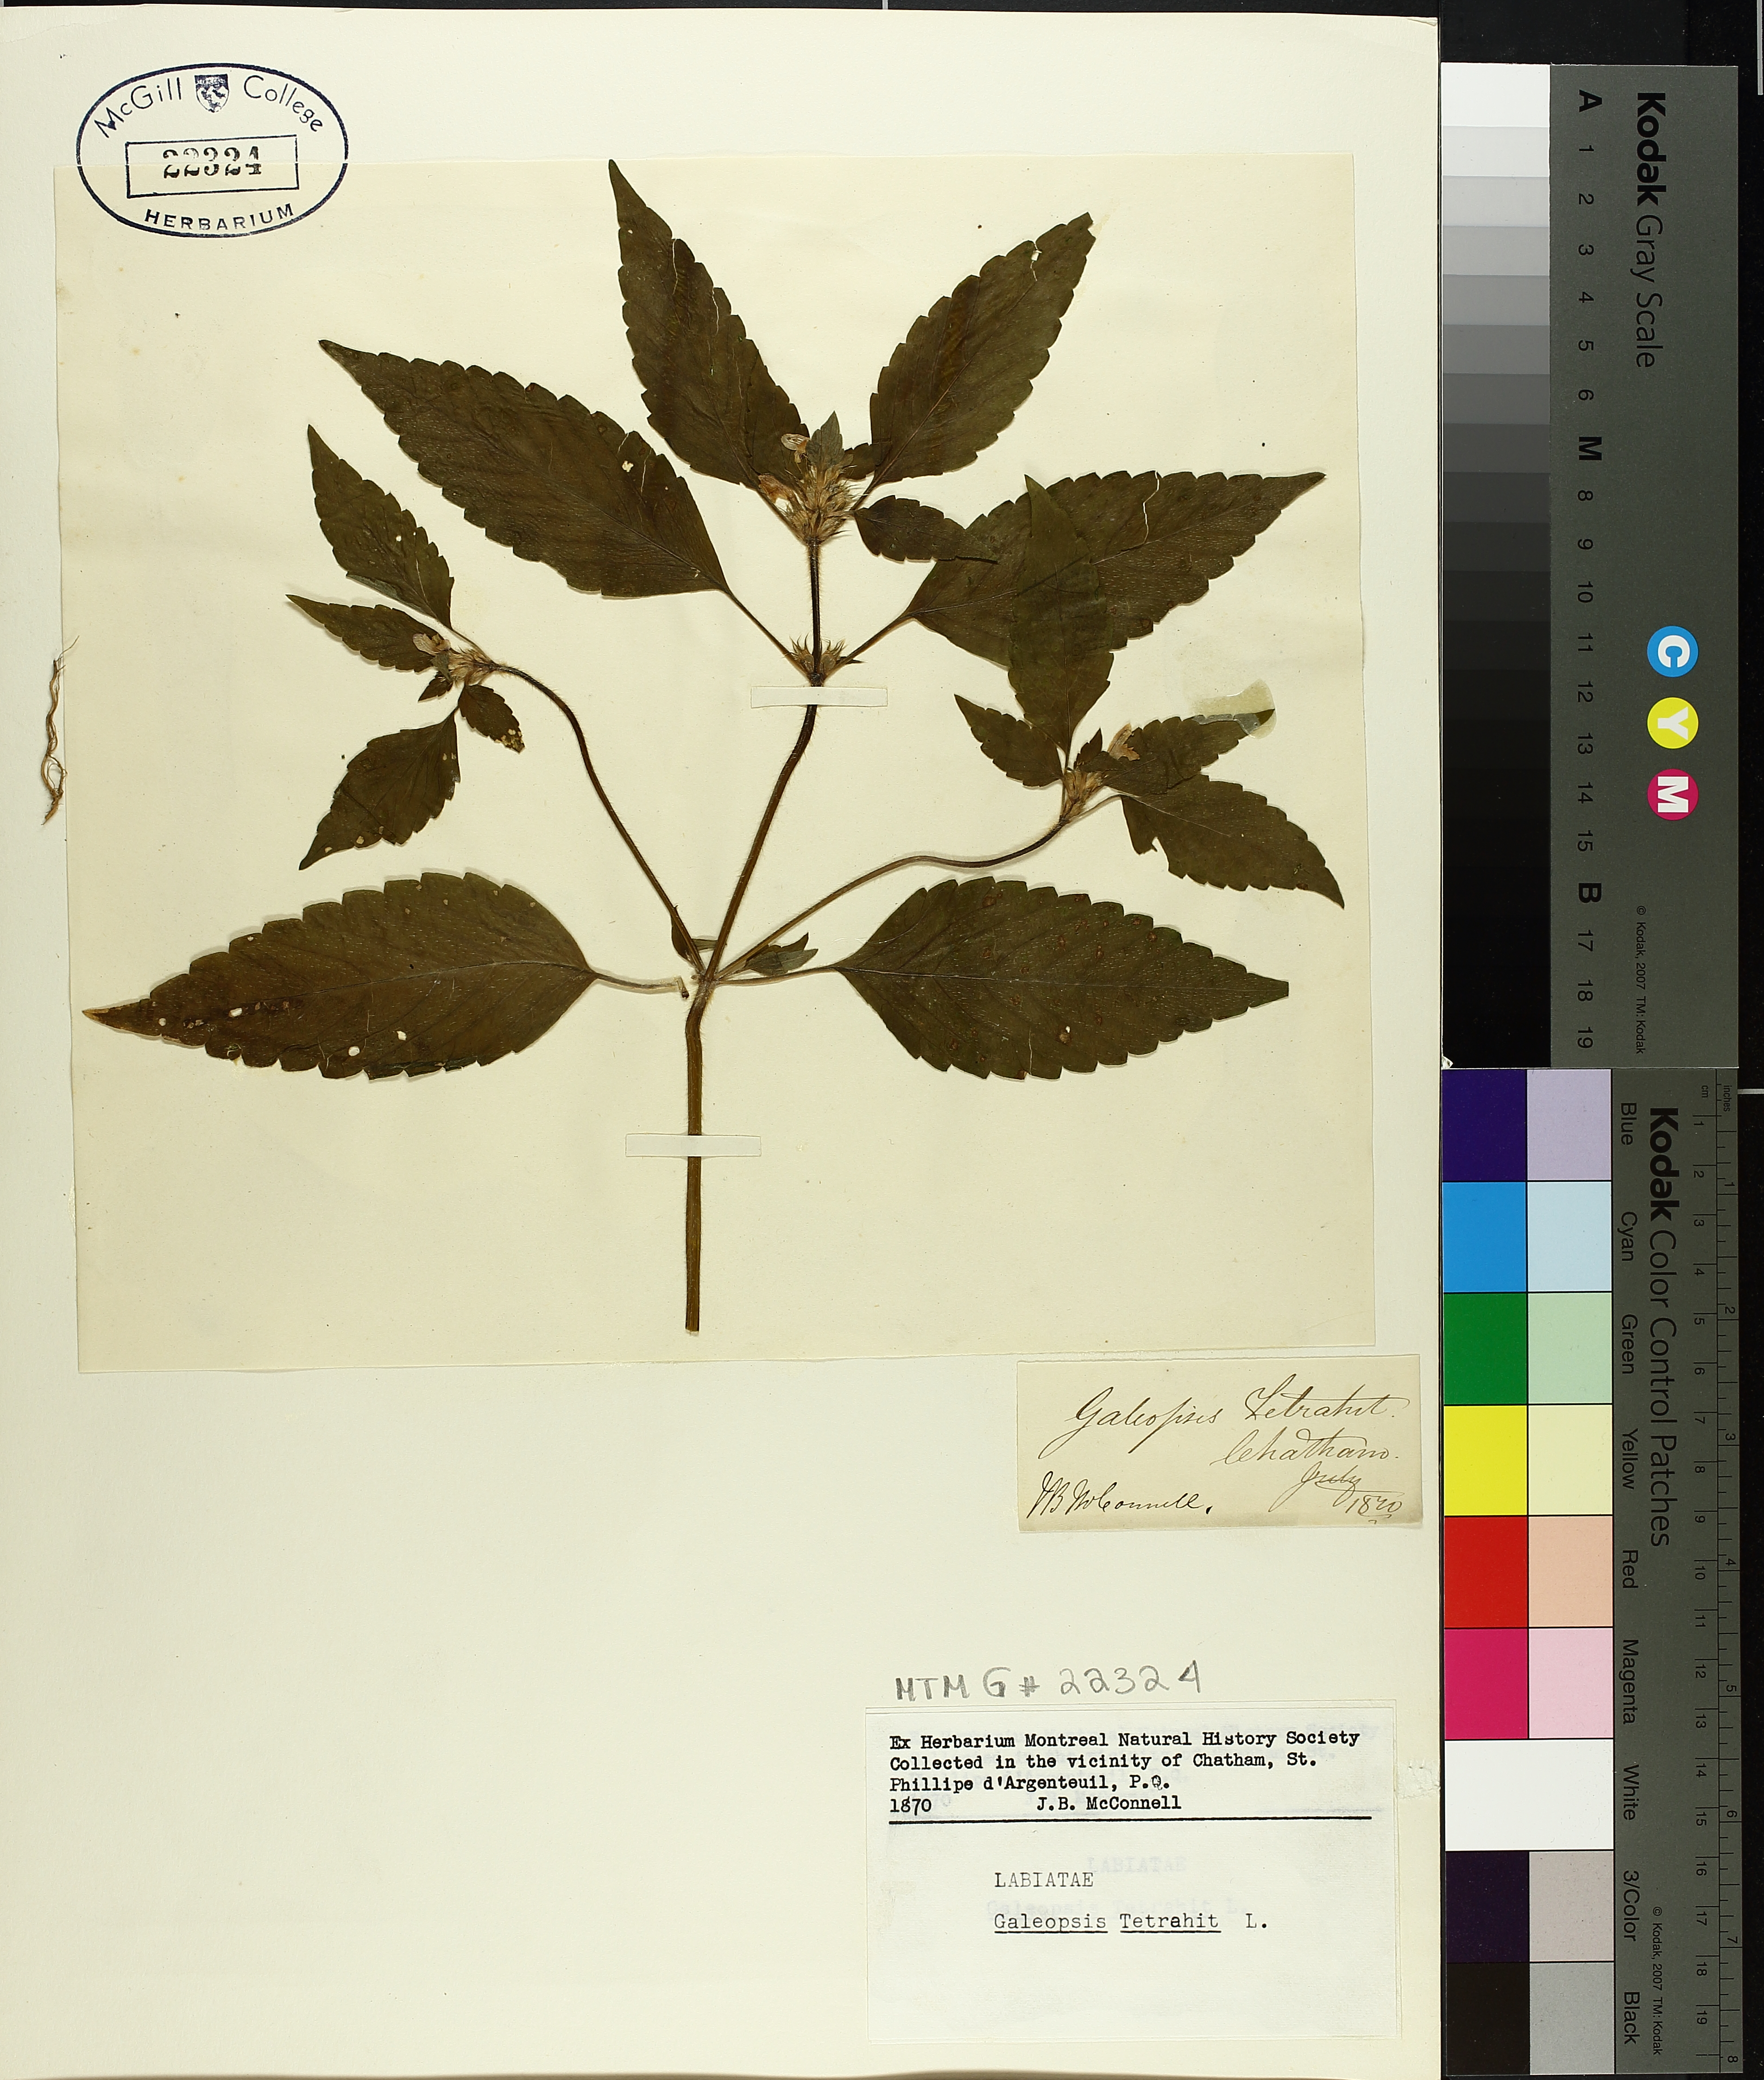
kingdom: Plantae
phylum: Tracheophyta
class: Magnoliopsida
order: Lamiales
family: Lamiaceae
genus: Galeopsis
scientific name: Galeopsis tetrahit
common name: Common hemp-nettle
